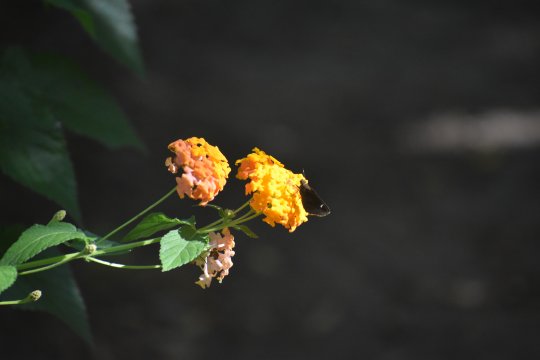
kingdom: Animalia
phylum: Arthropoda
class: Insecta
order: Lepidoptera
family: Hesperiidae
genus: Lerema
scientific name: Lerema accius
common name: Clouded Skipper
